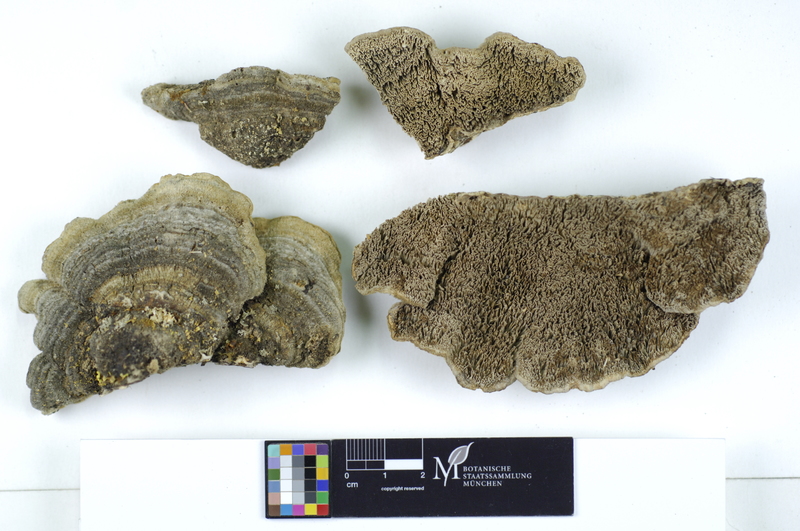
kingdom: Plantae
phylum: Tracheophyta
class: Magnoliopsida
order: Fagales
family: Betulaceae
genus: Betula
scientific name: Betula pubescens
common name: Downy birch
